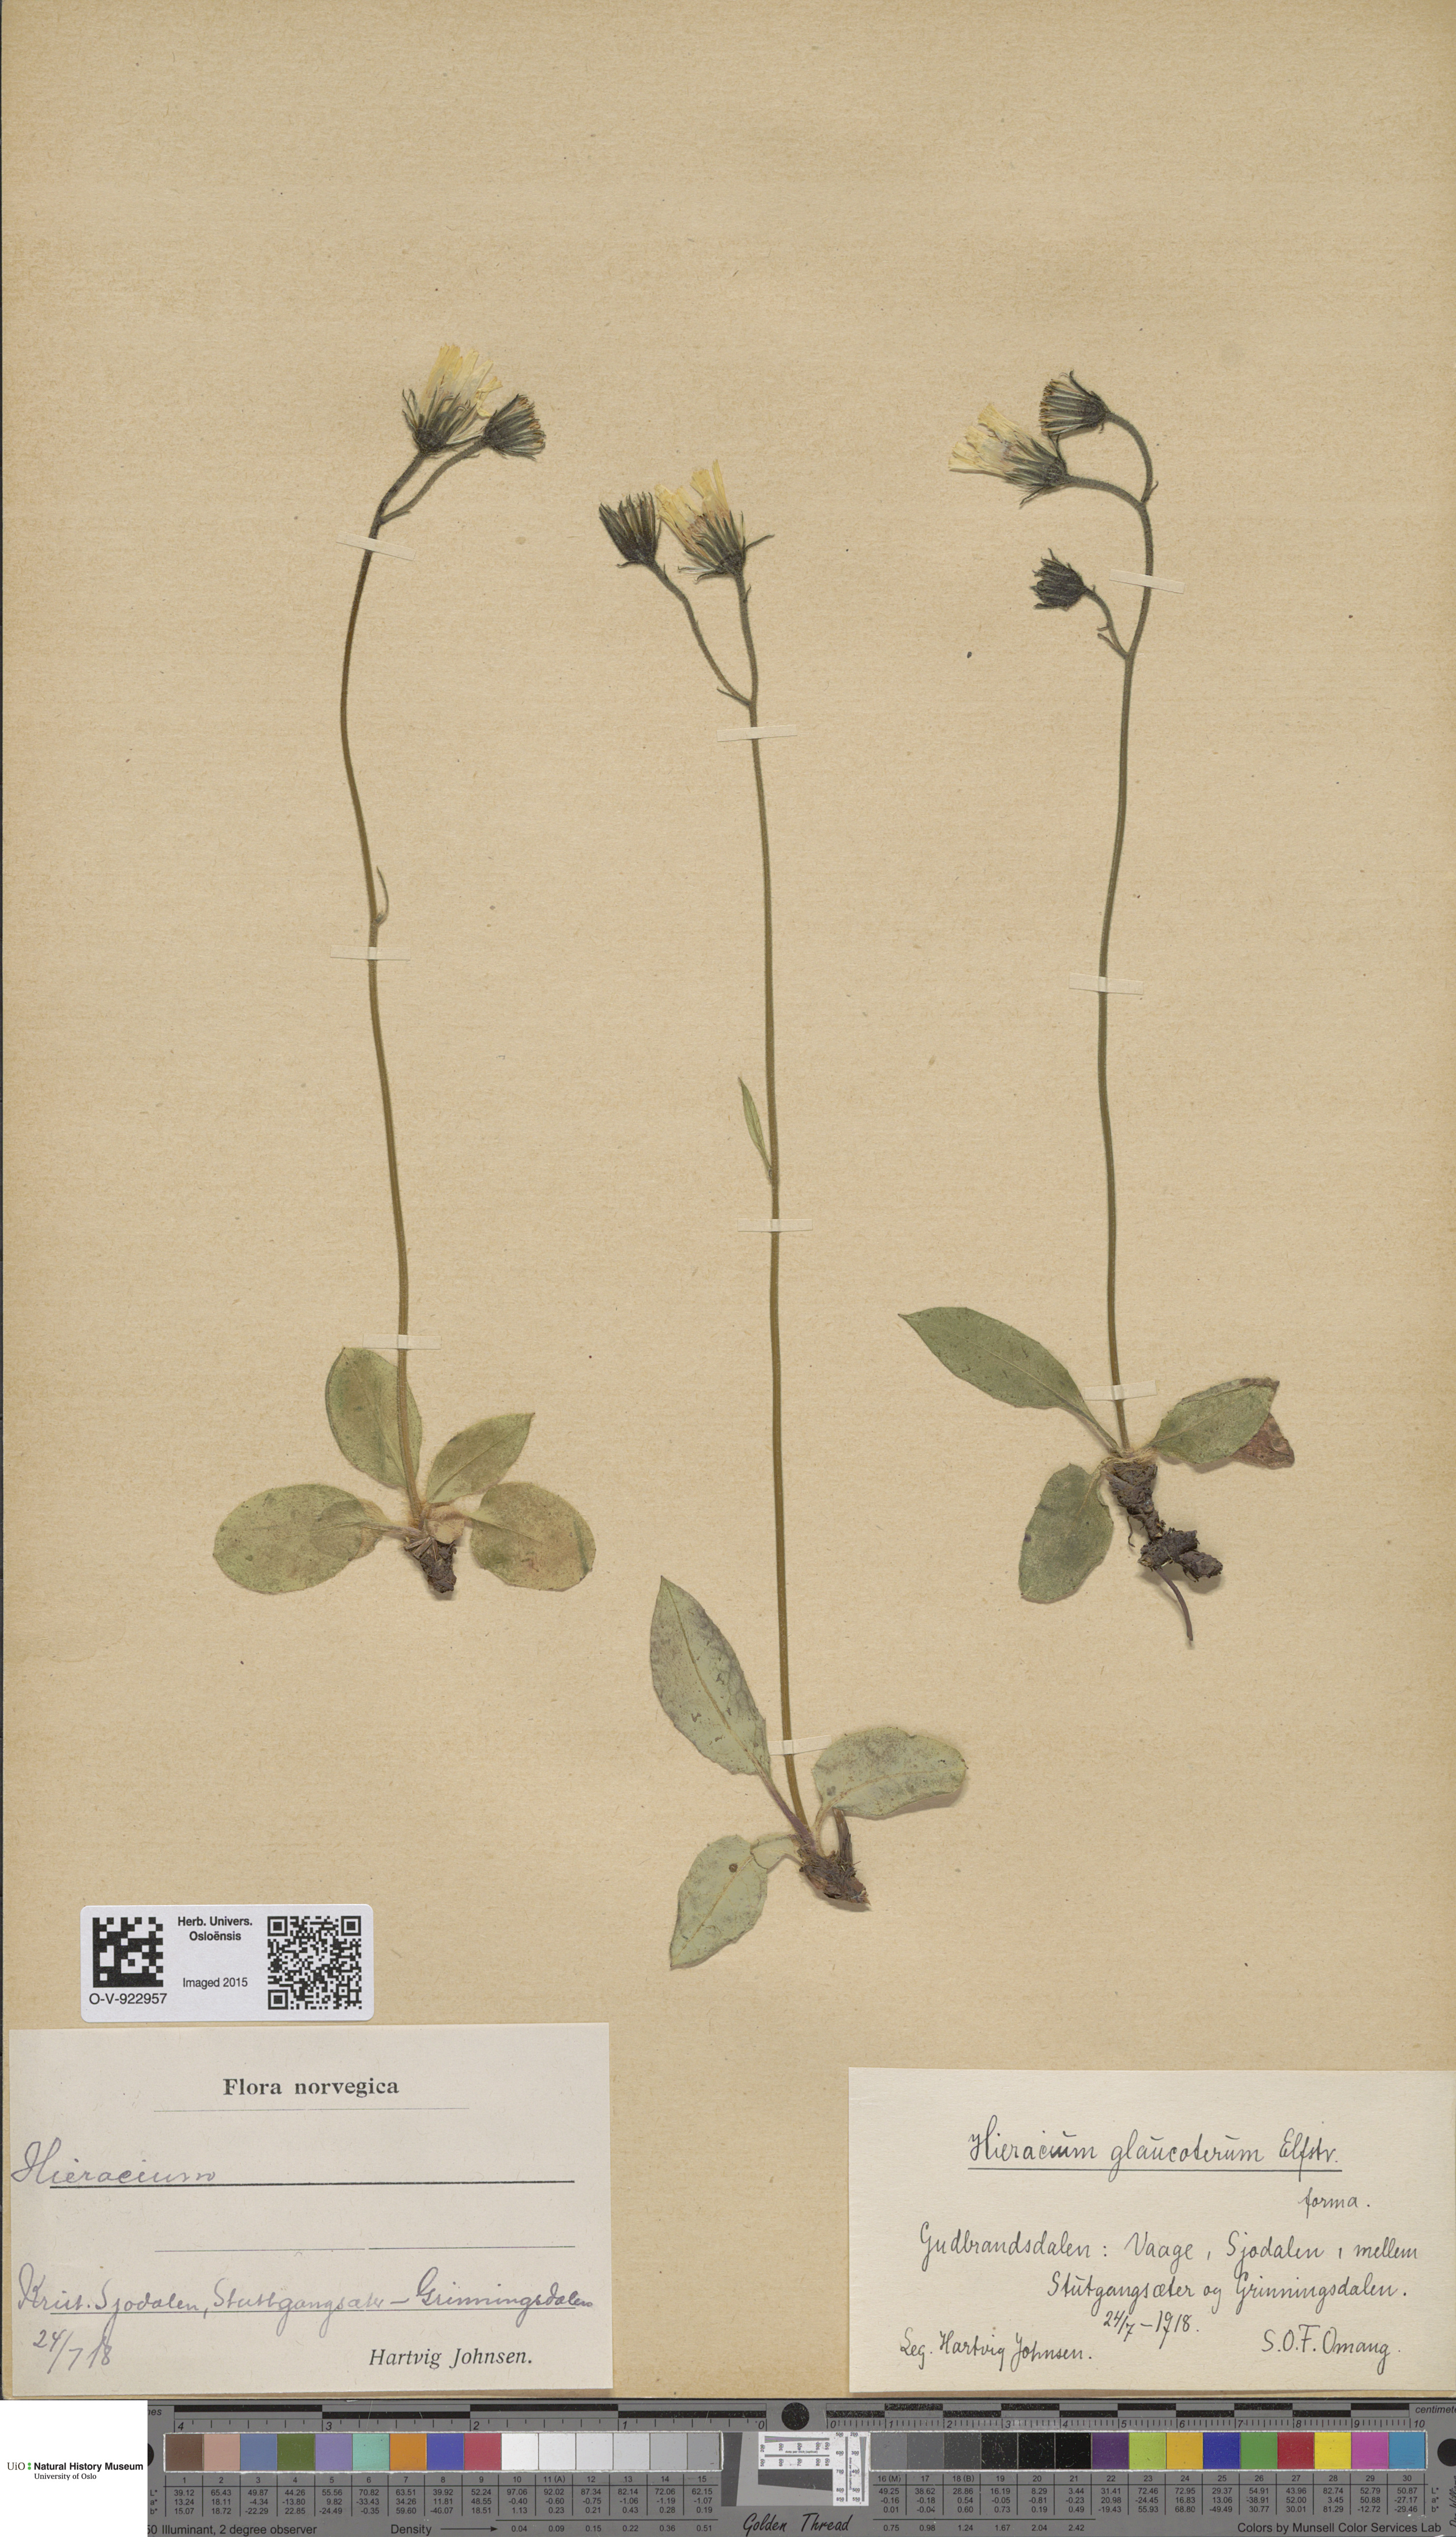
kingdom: Plantae
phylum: Tracheophyta
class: Magnoliopsida
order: Asterales
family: Asteraceae
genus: Hieracium
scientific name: Hieracium
